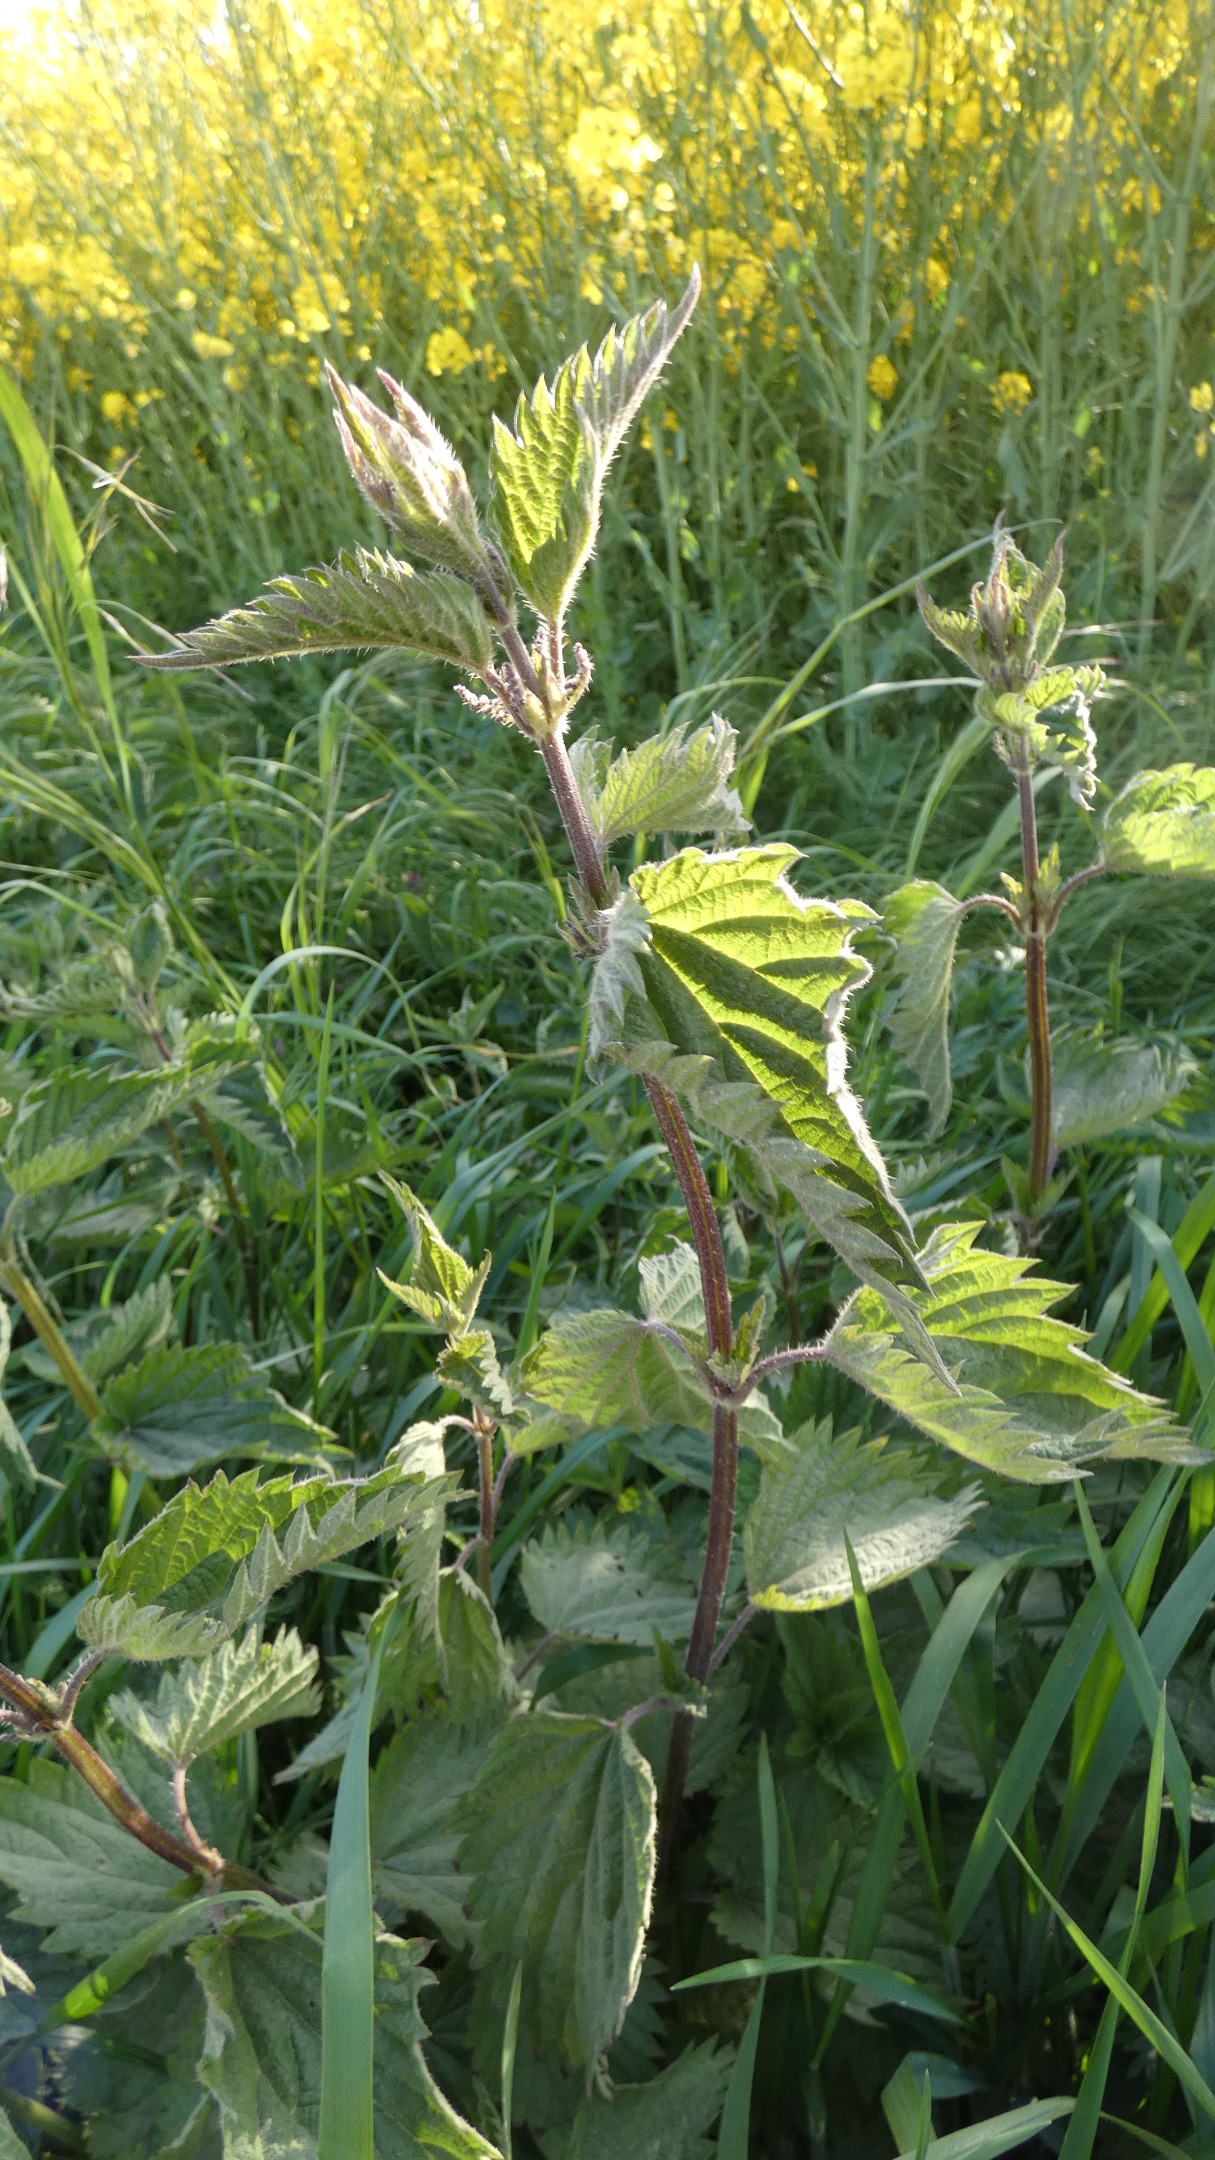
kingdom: Plantae
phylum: Tracheophyta
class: Magnoliopsida
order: Rosales
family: Urticaceae
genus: Urtica
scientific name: Urtica dioica
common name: Stor nælde
